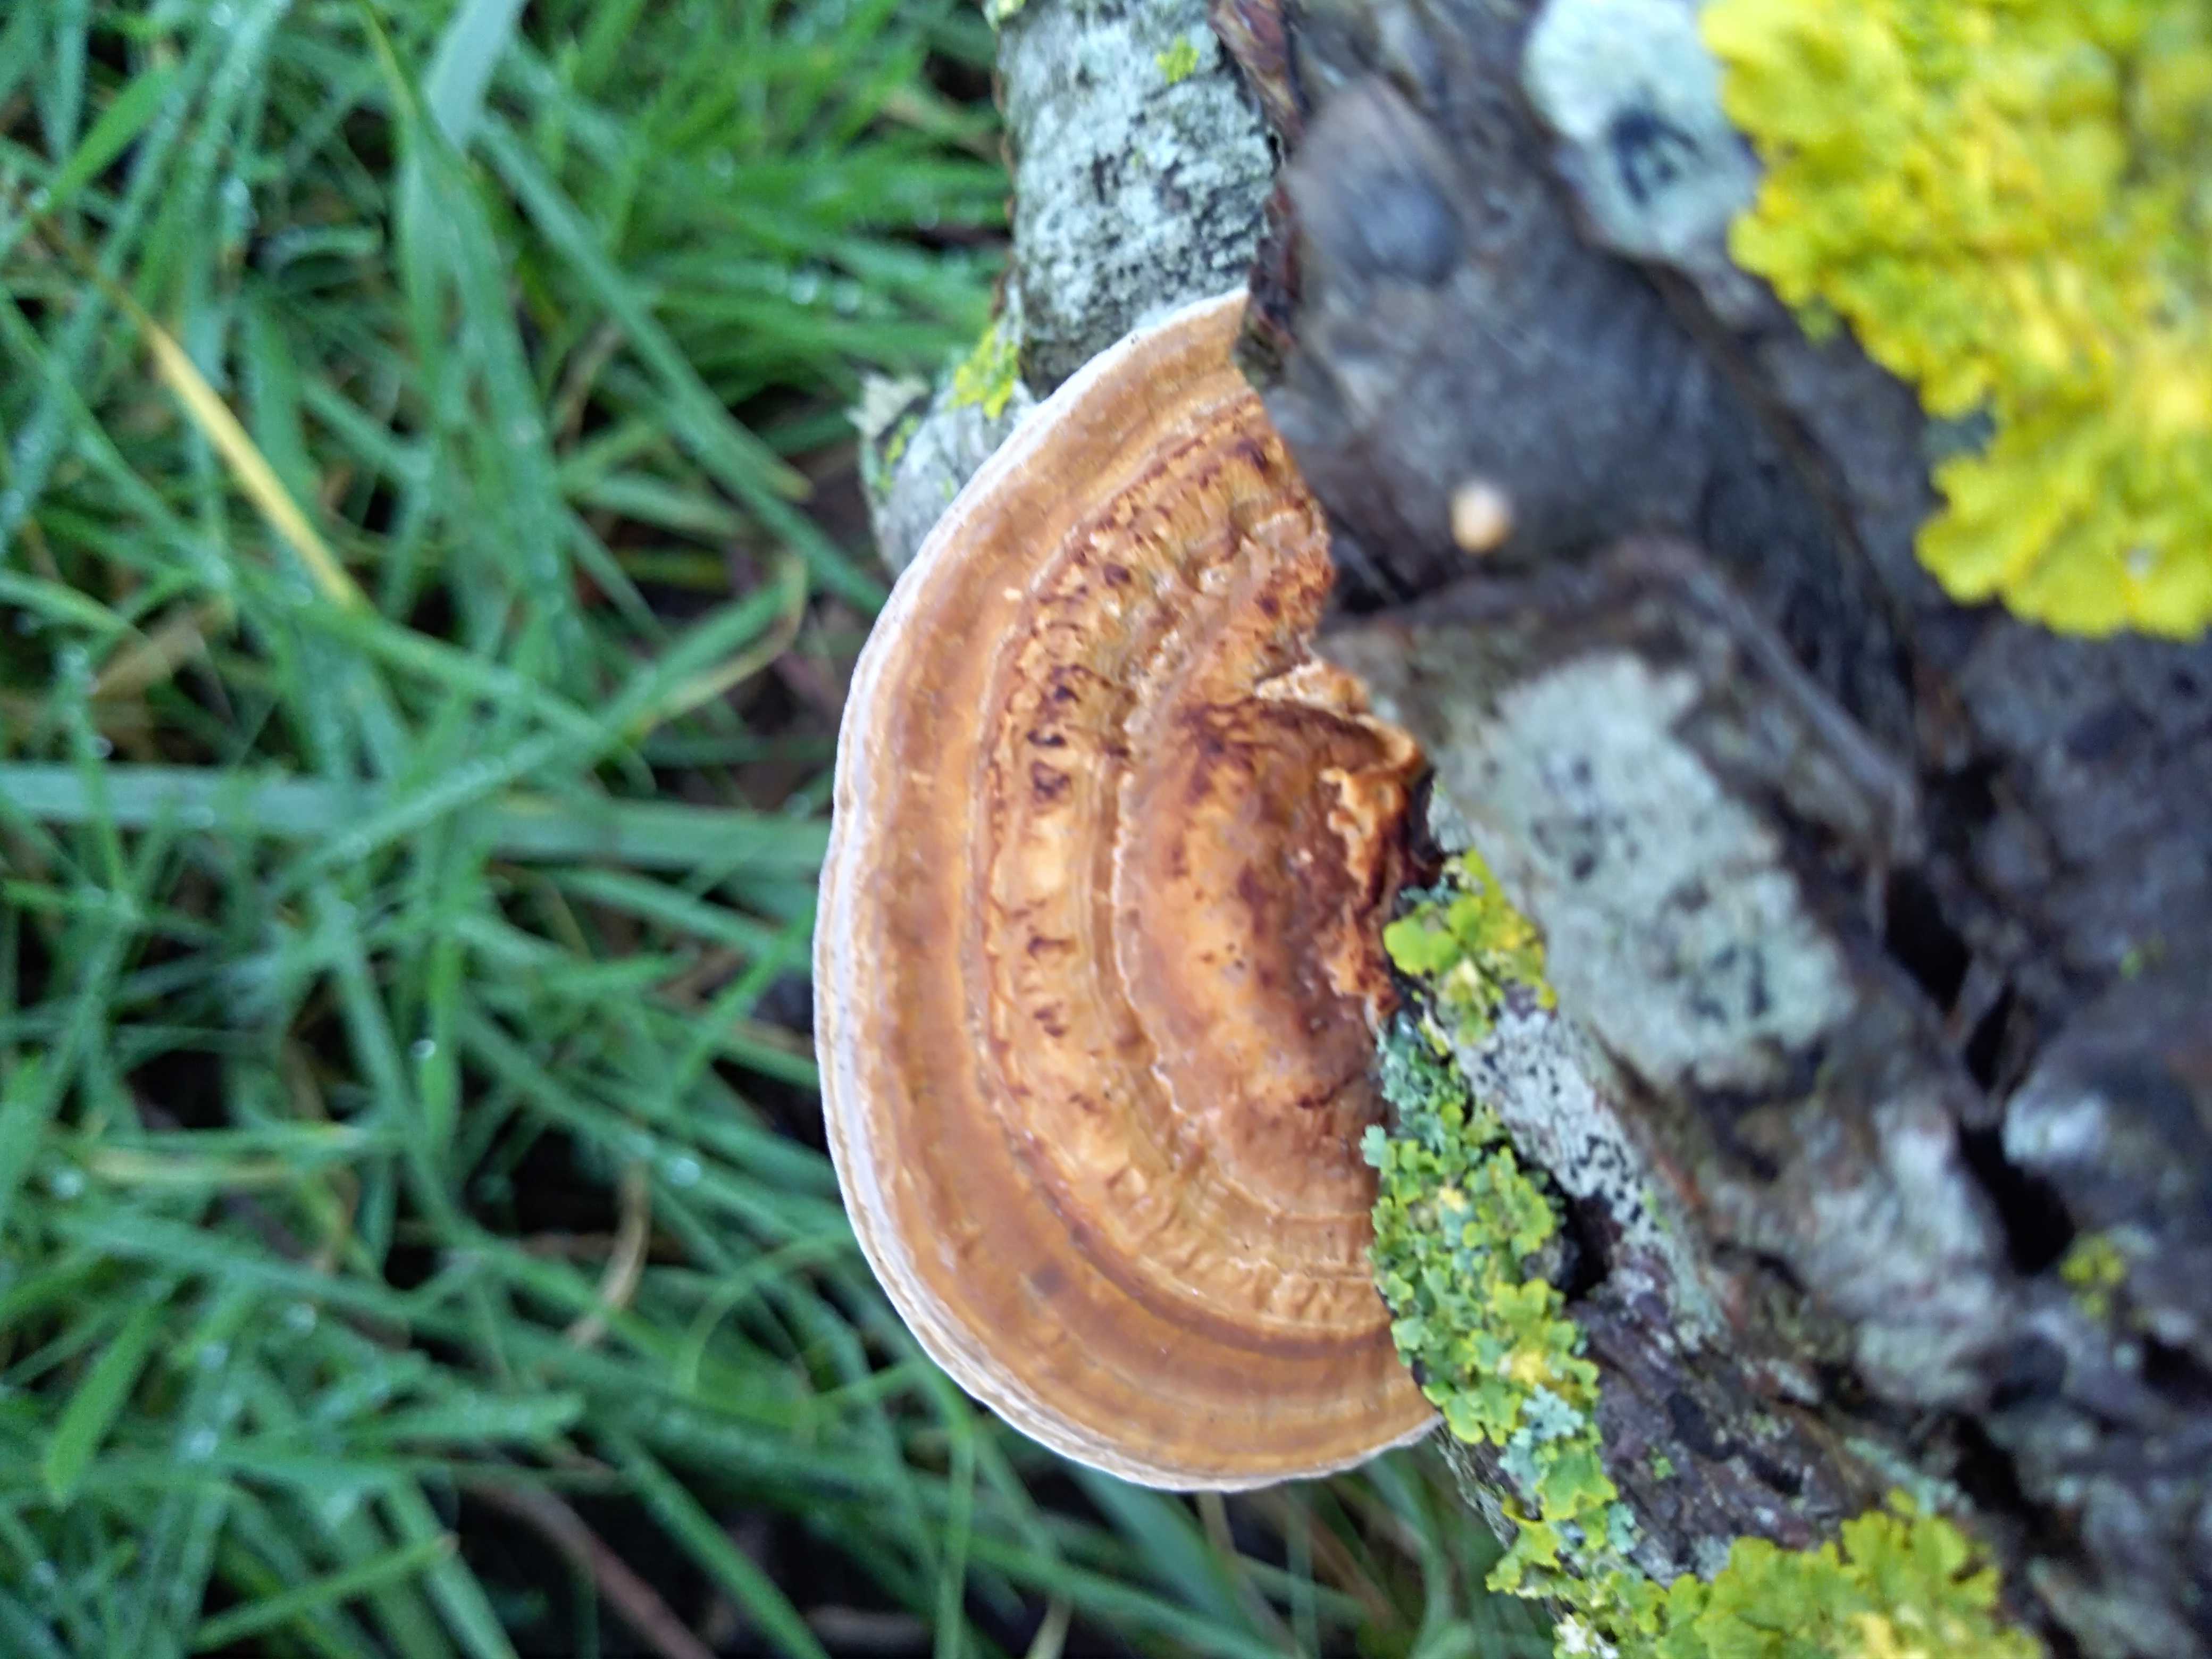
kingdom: Fungi
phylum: Basidiomycota
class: Agaricomycetes
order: Polyporales
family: Polyporaceae
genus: Daedaleopsis
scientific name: Daedaleopsis confragosa
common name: rødmende læderporesvamp
